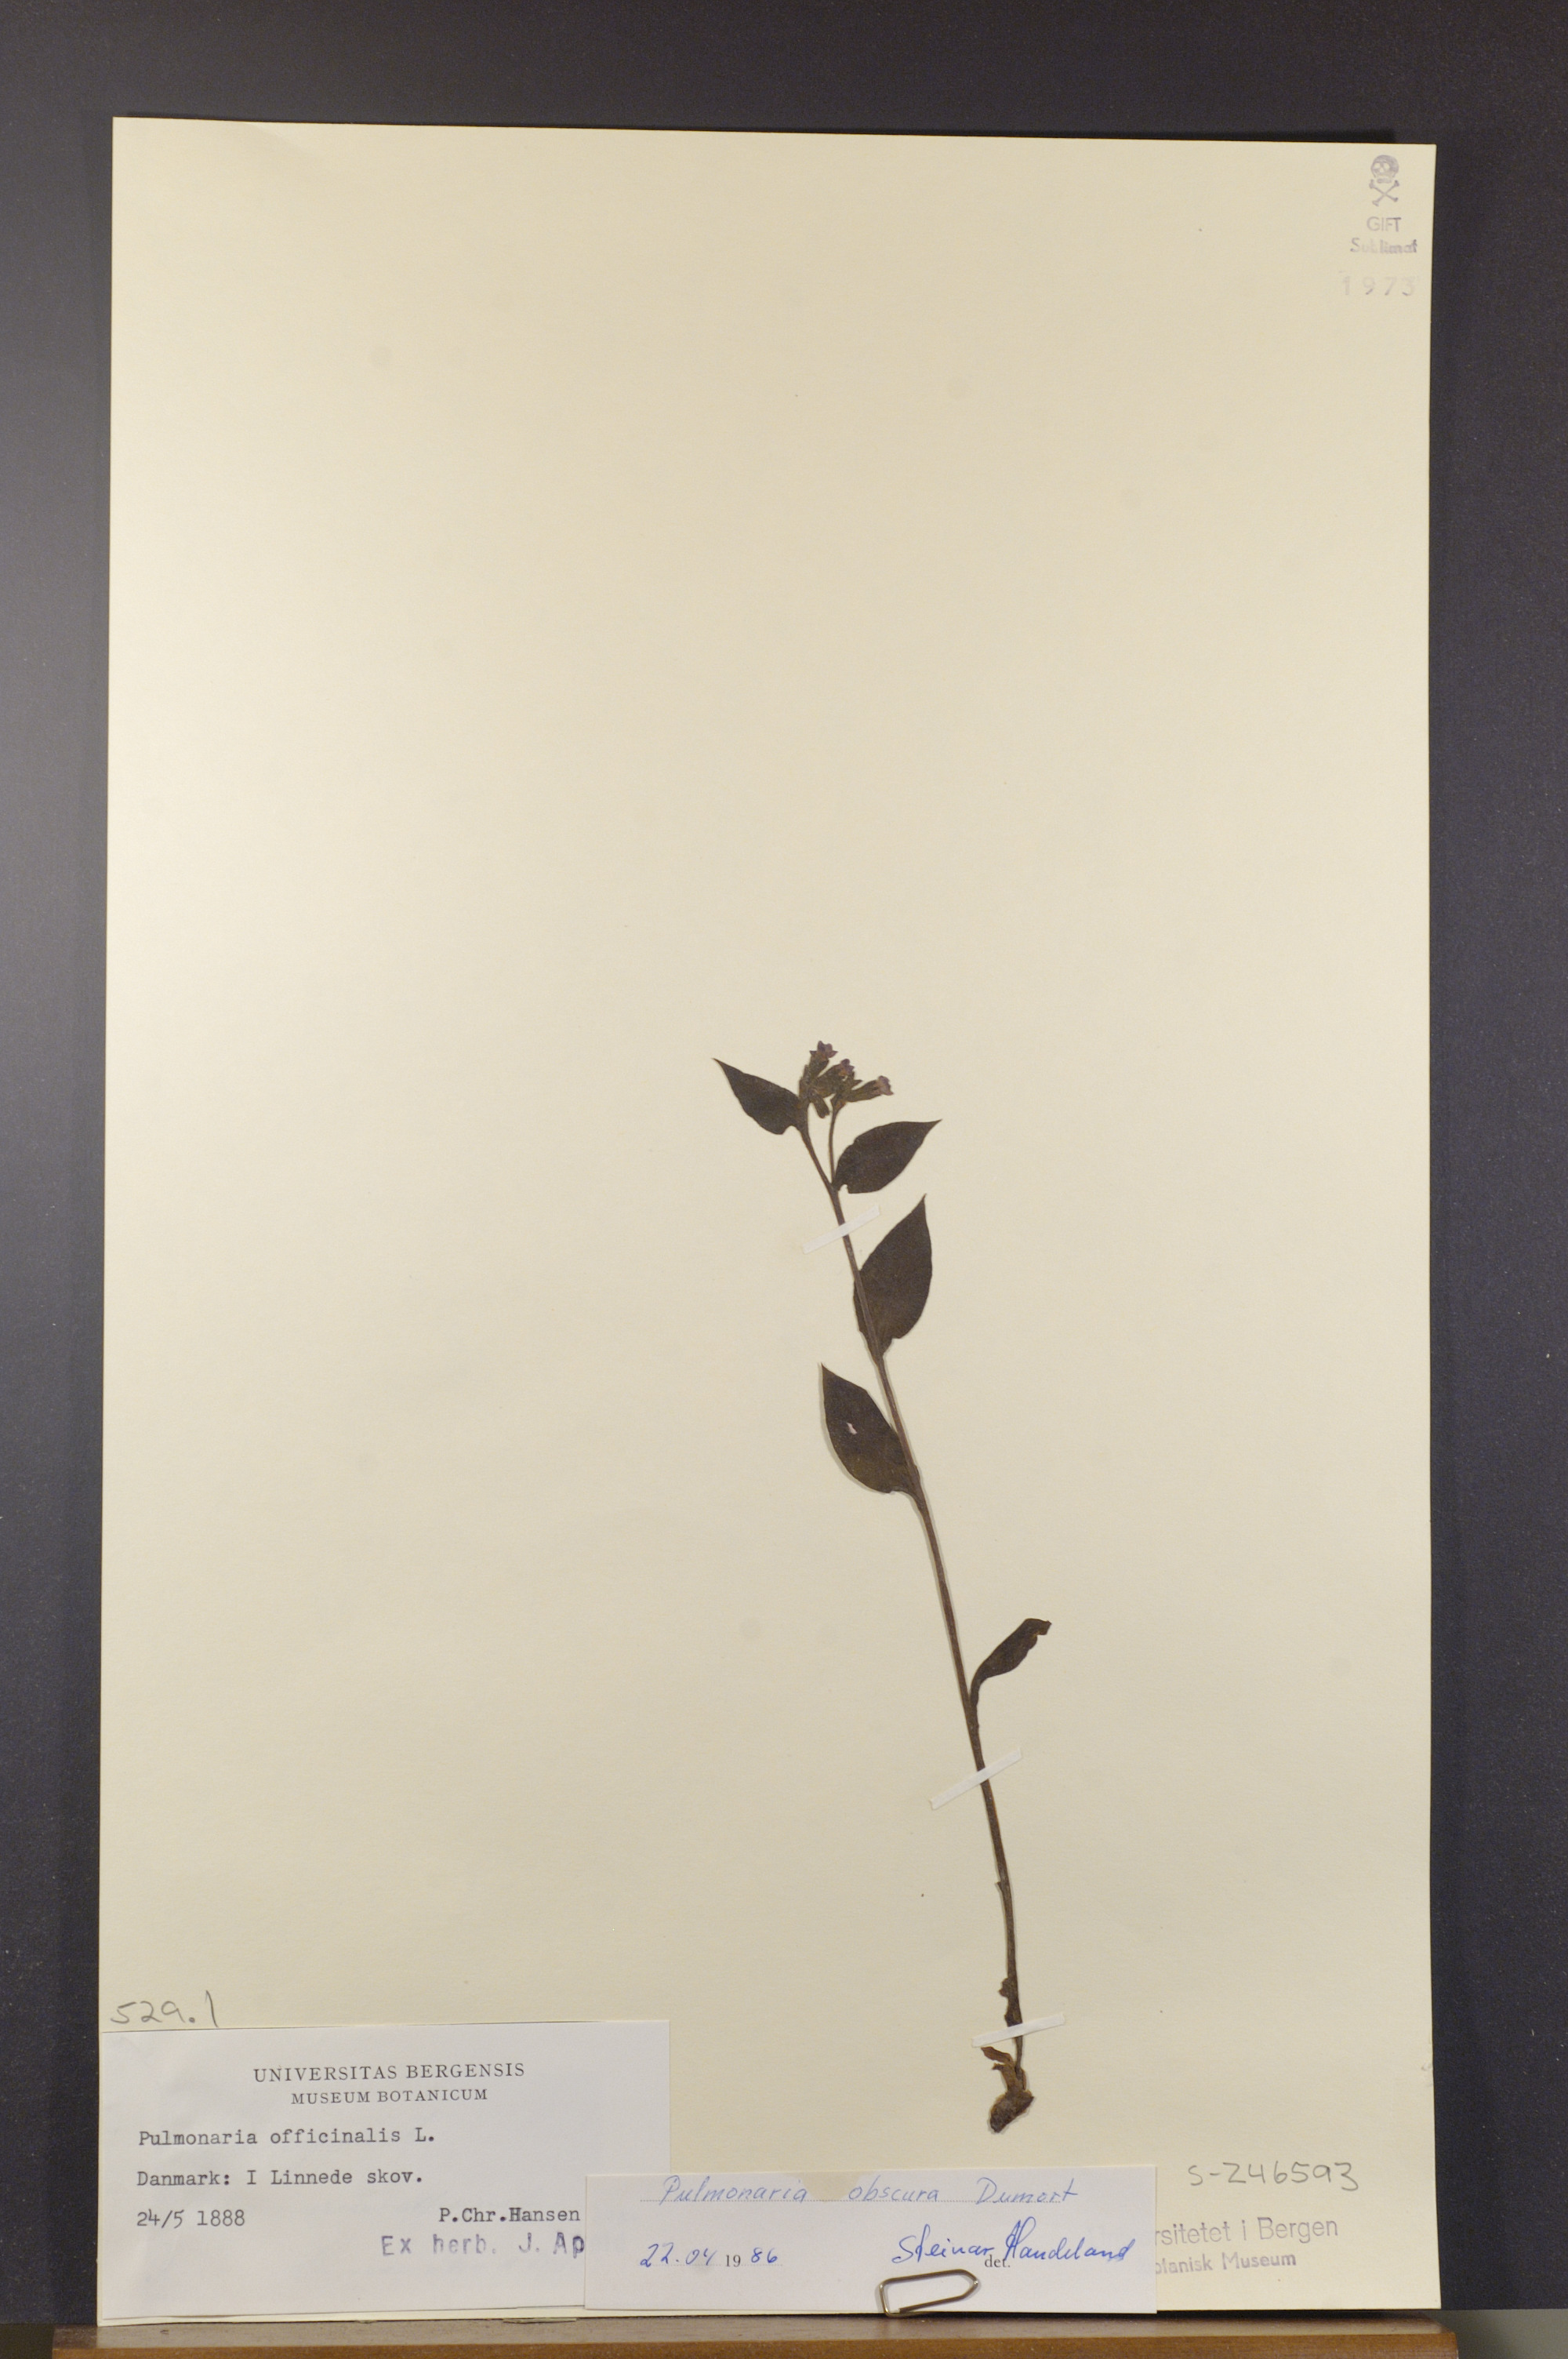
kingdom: Plantae
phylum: Tracheophyta
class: Magnoliopsida
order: Boraginales
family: Boraginaceae
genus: Pulmonaria
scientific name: Pulmonaria obscura
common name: Suffolk lungwort
